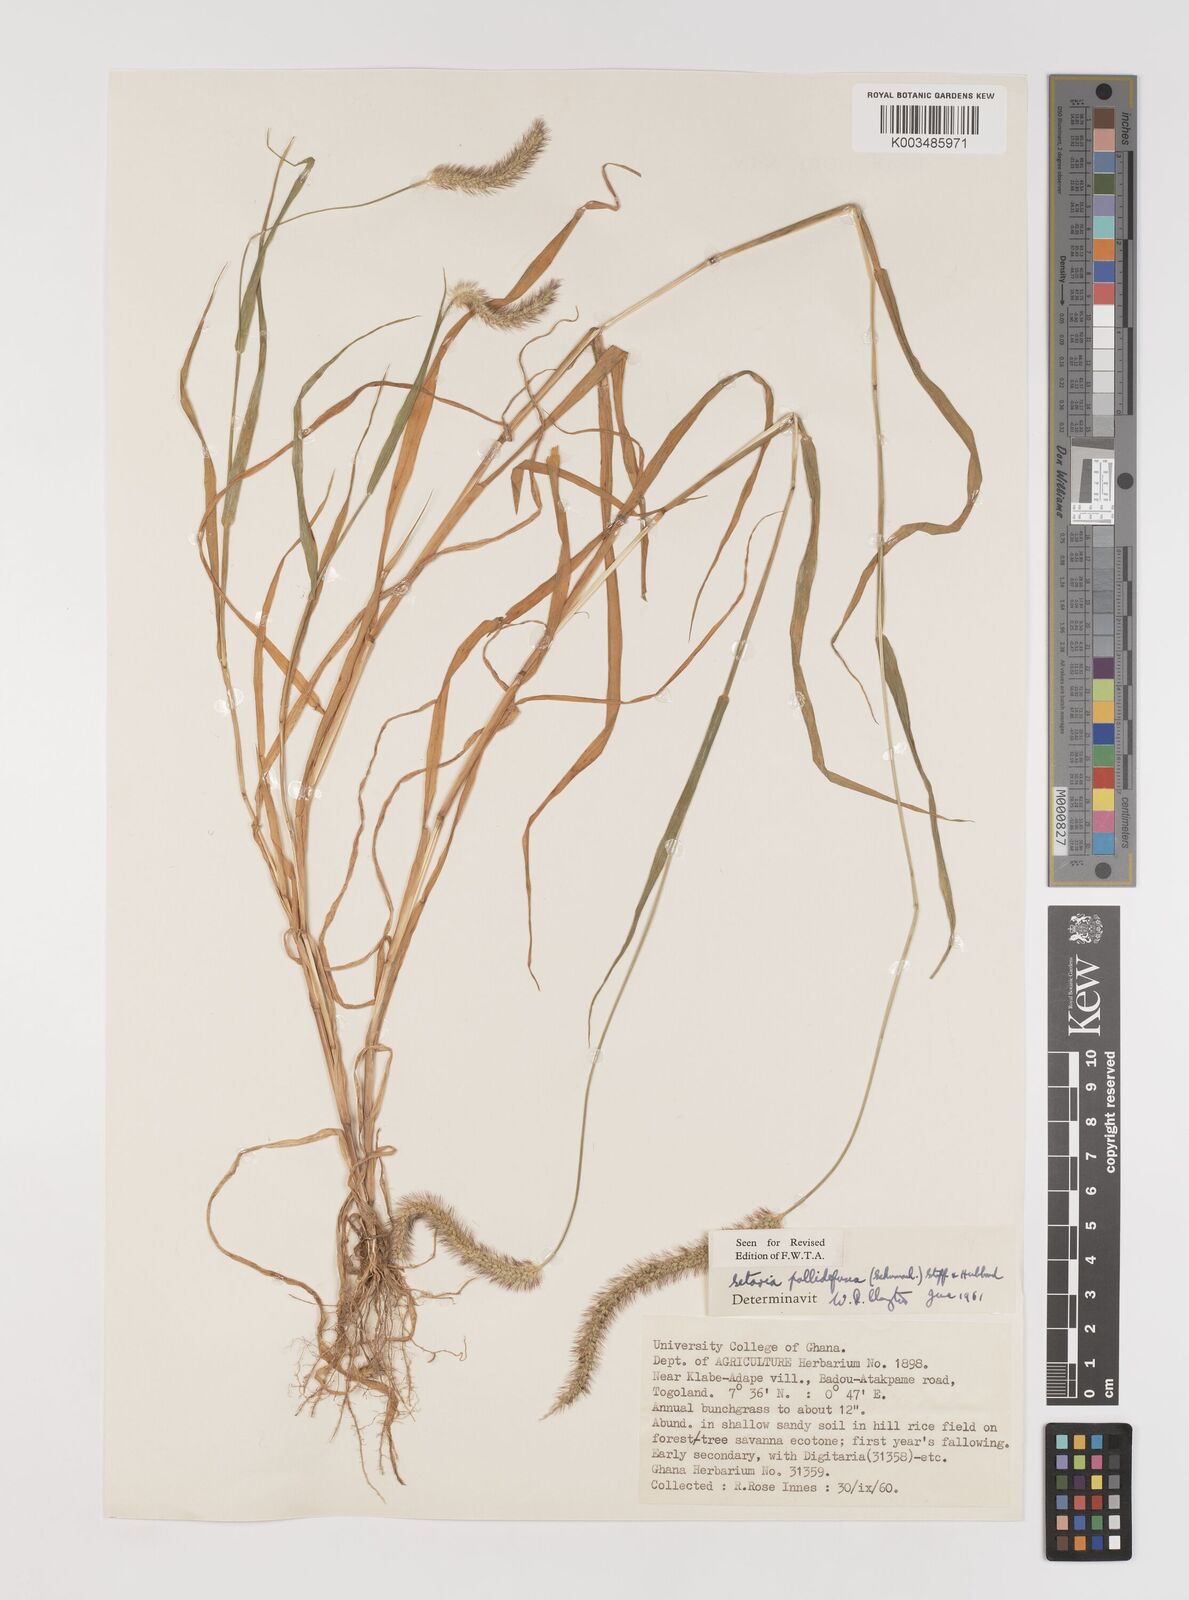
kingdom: Plantae
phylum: Tracheophyta
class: Liliopsida
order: Poales
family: Poaceae
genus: Setaria
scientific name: Setaria pumila
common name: Yellow bristle-grass
